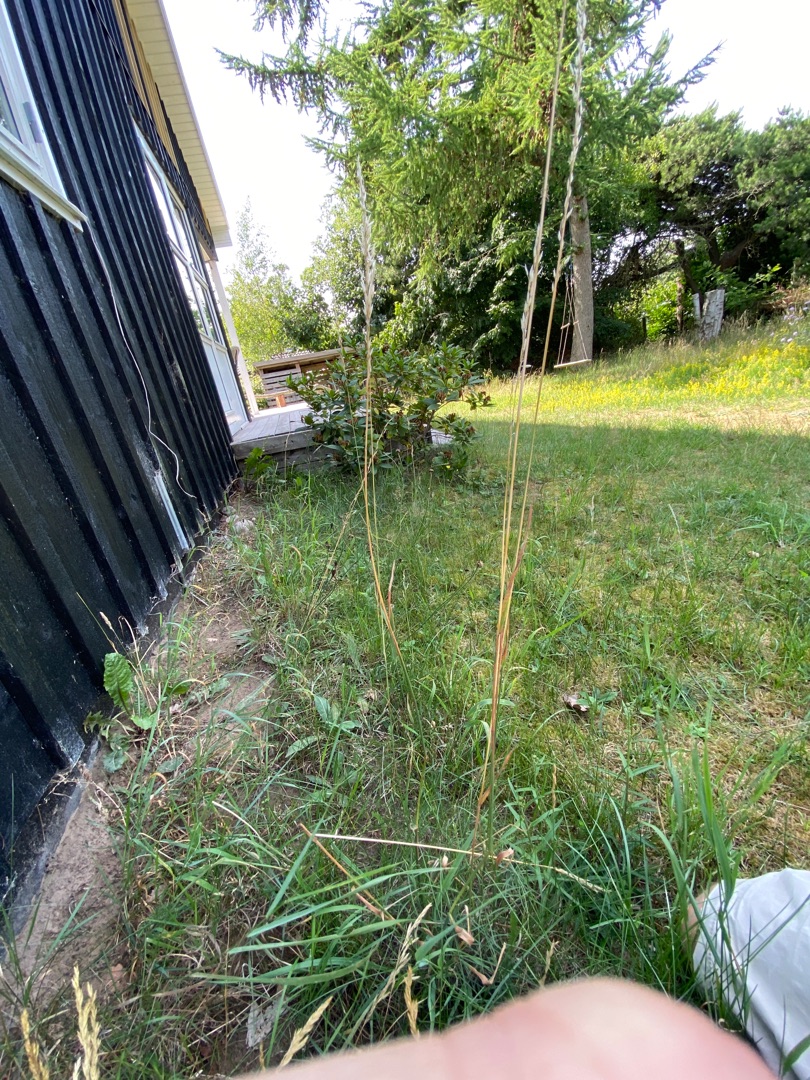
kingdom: Plantae
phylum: Tracheophyta
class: Liliopsida
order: Poales
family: Poaceae
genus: Arrhenatherum
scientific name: Arrhenatherum elatius
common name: Draphavre
